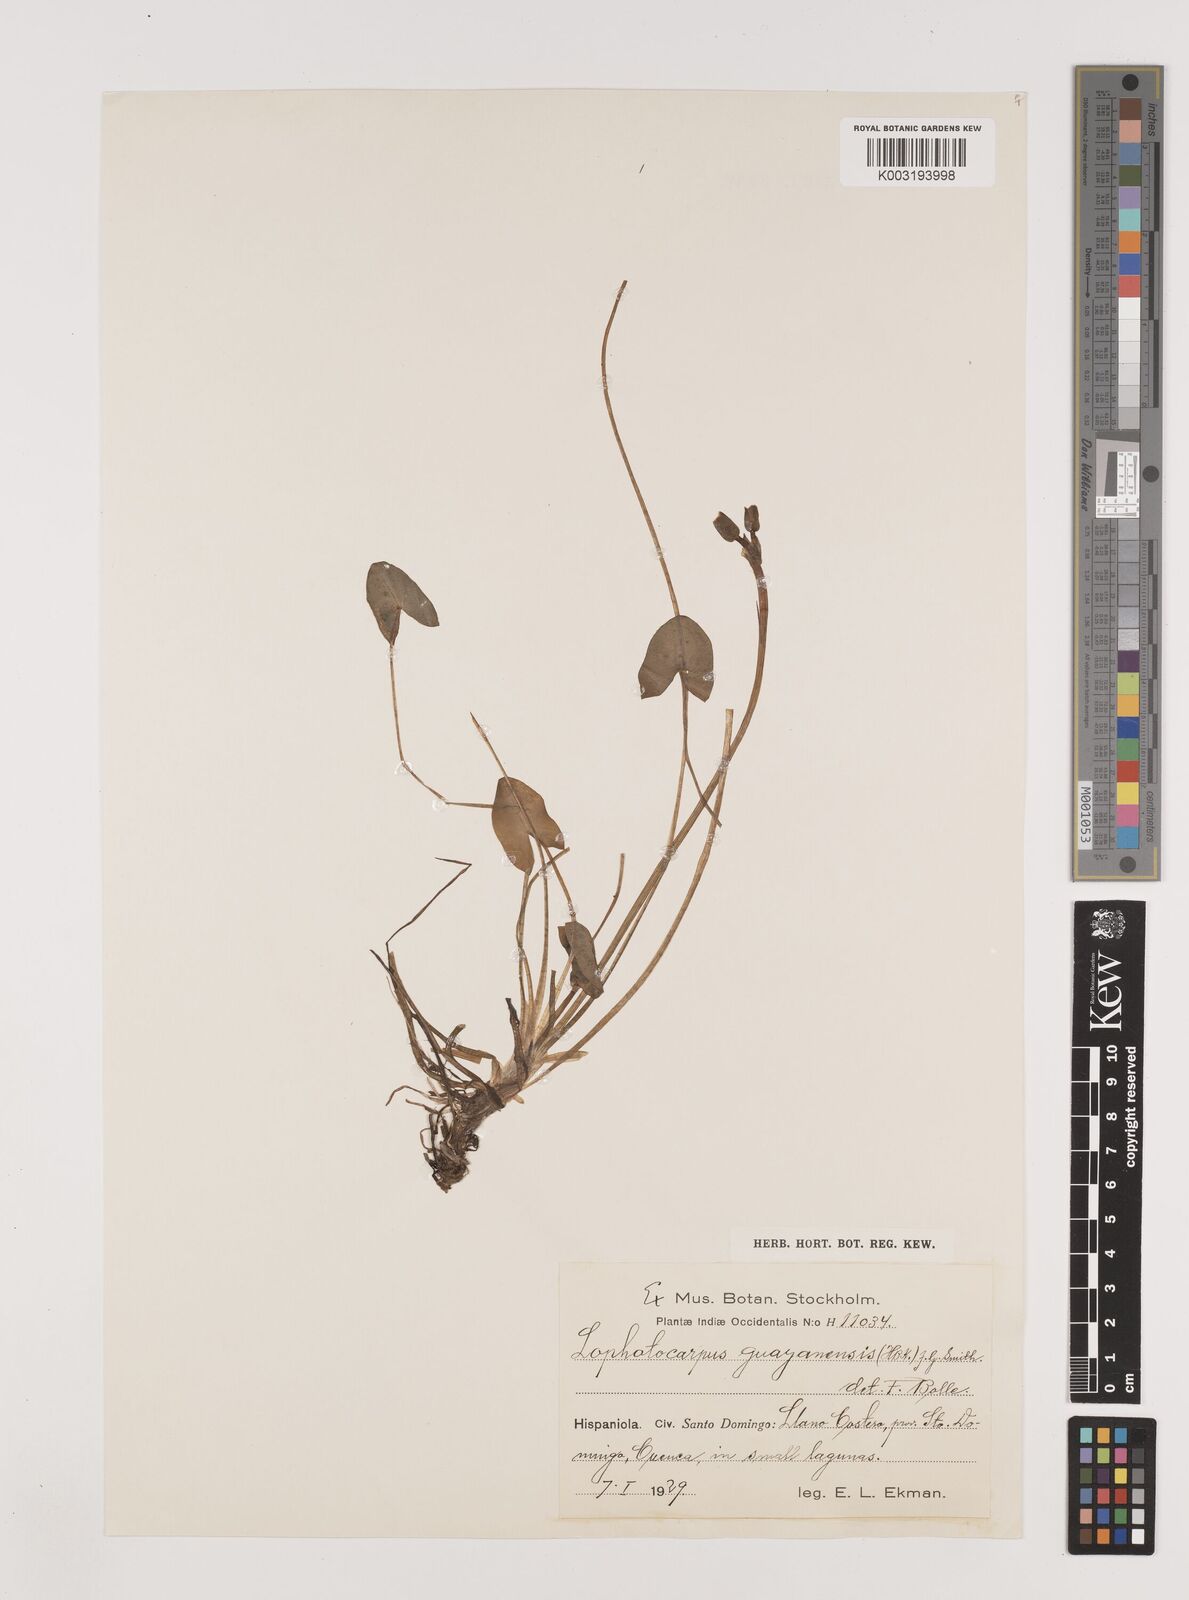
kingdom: Plantae
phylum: Tracheophyta
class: Liliopsida
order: Alismatales
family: Alismataceae
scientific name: Alismataceae
